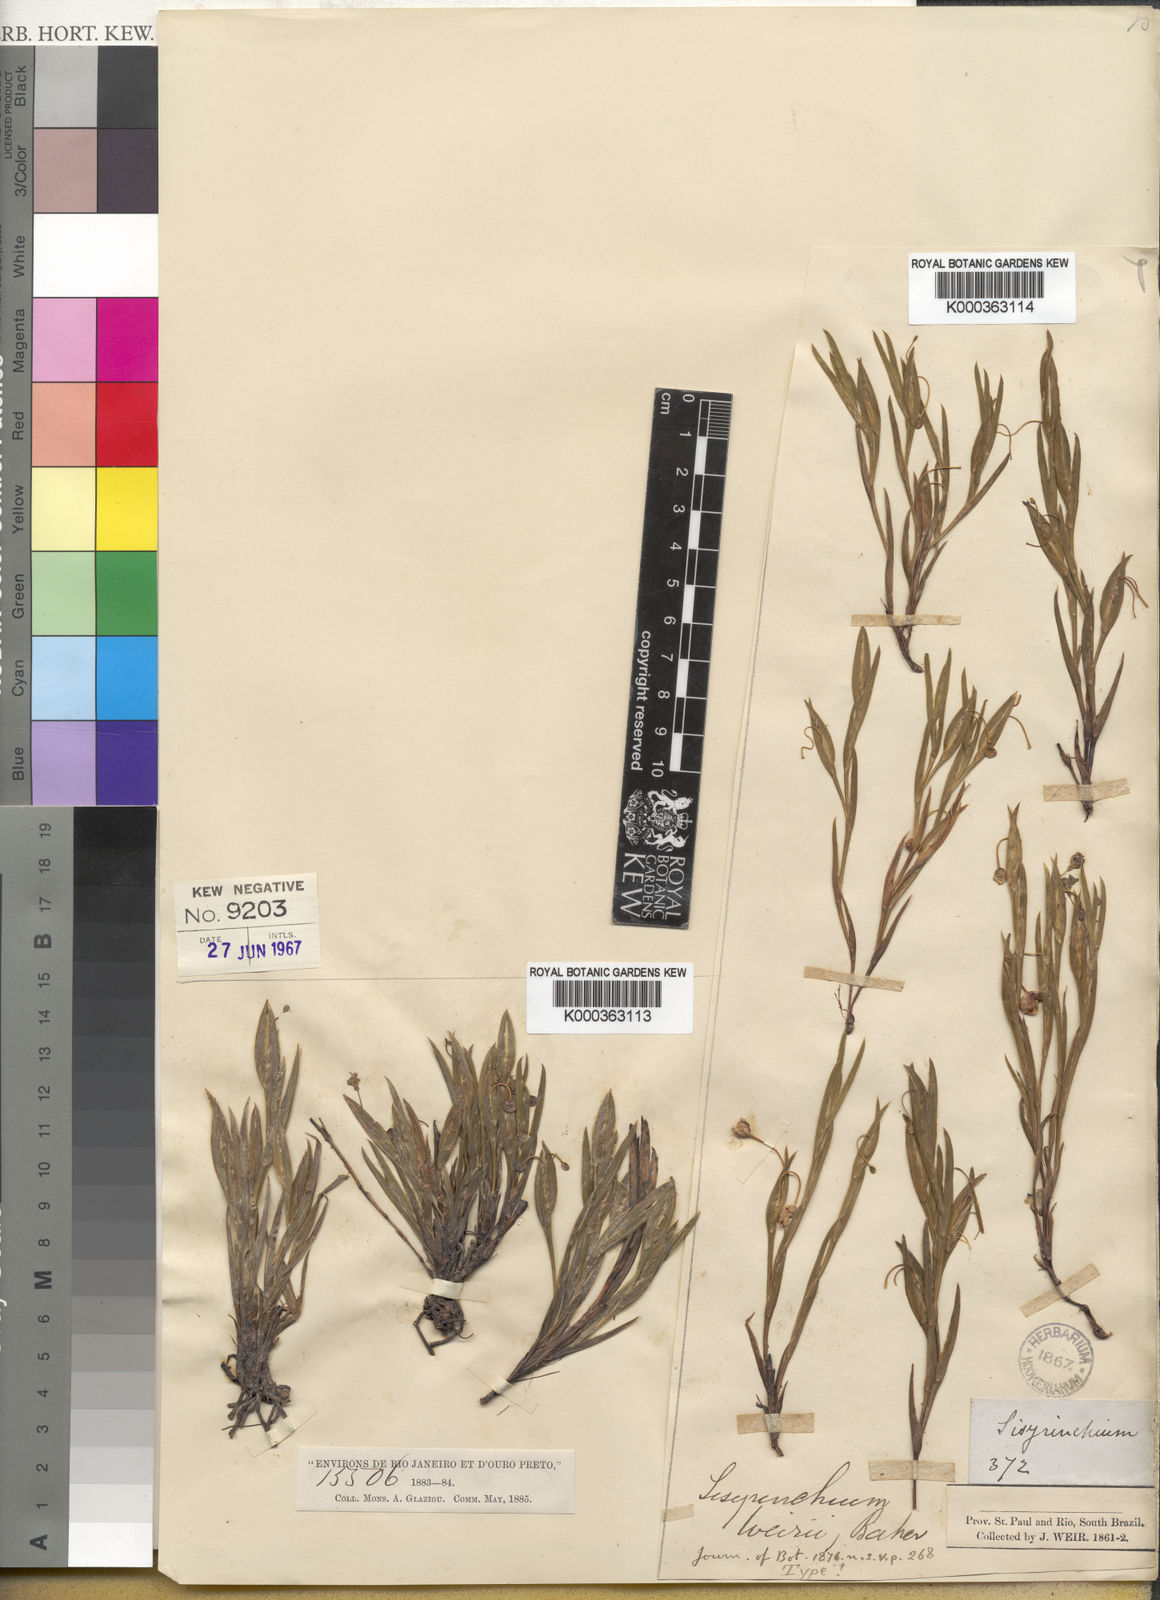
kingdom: Plantae
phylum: Tracheophyta
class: Liliopsida
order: Asparagales
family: Iridaceae
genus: Sisyrinchium
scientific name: Sisyrinchium vaginatum
